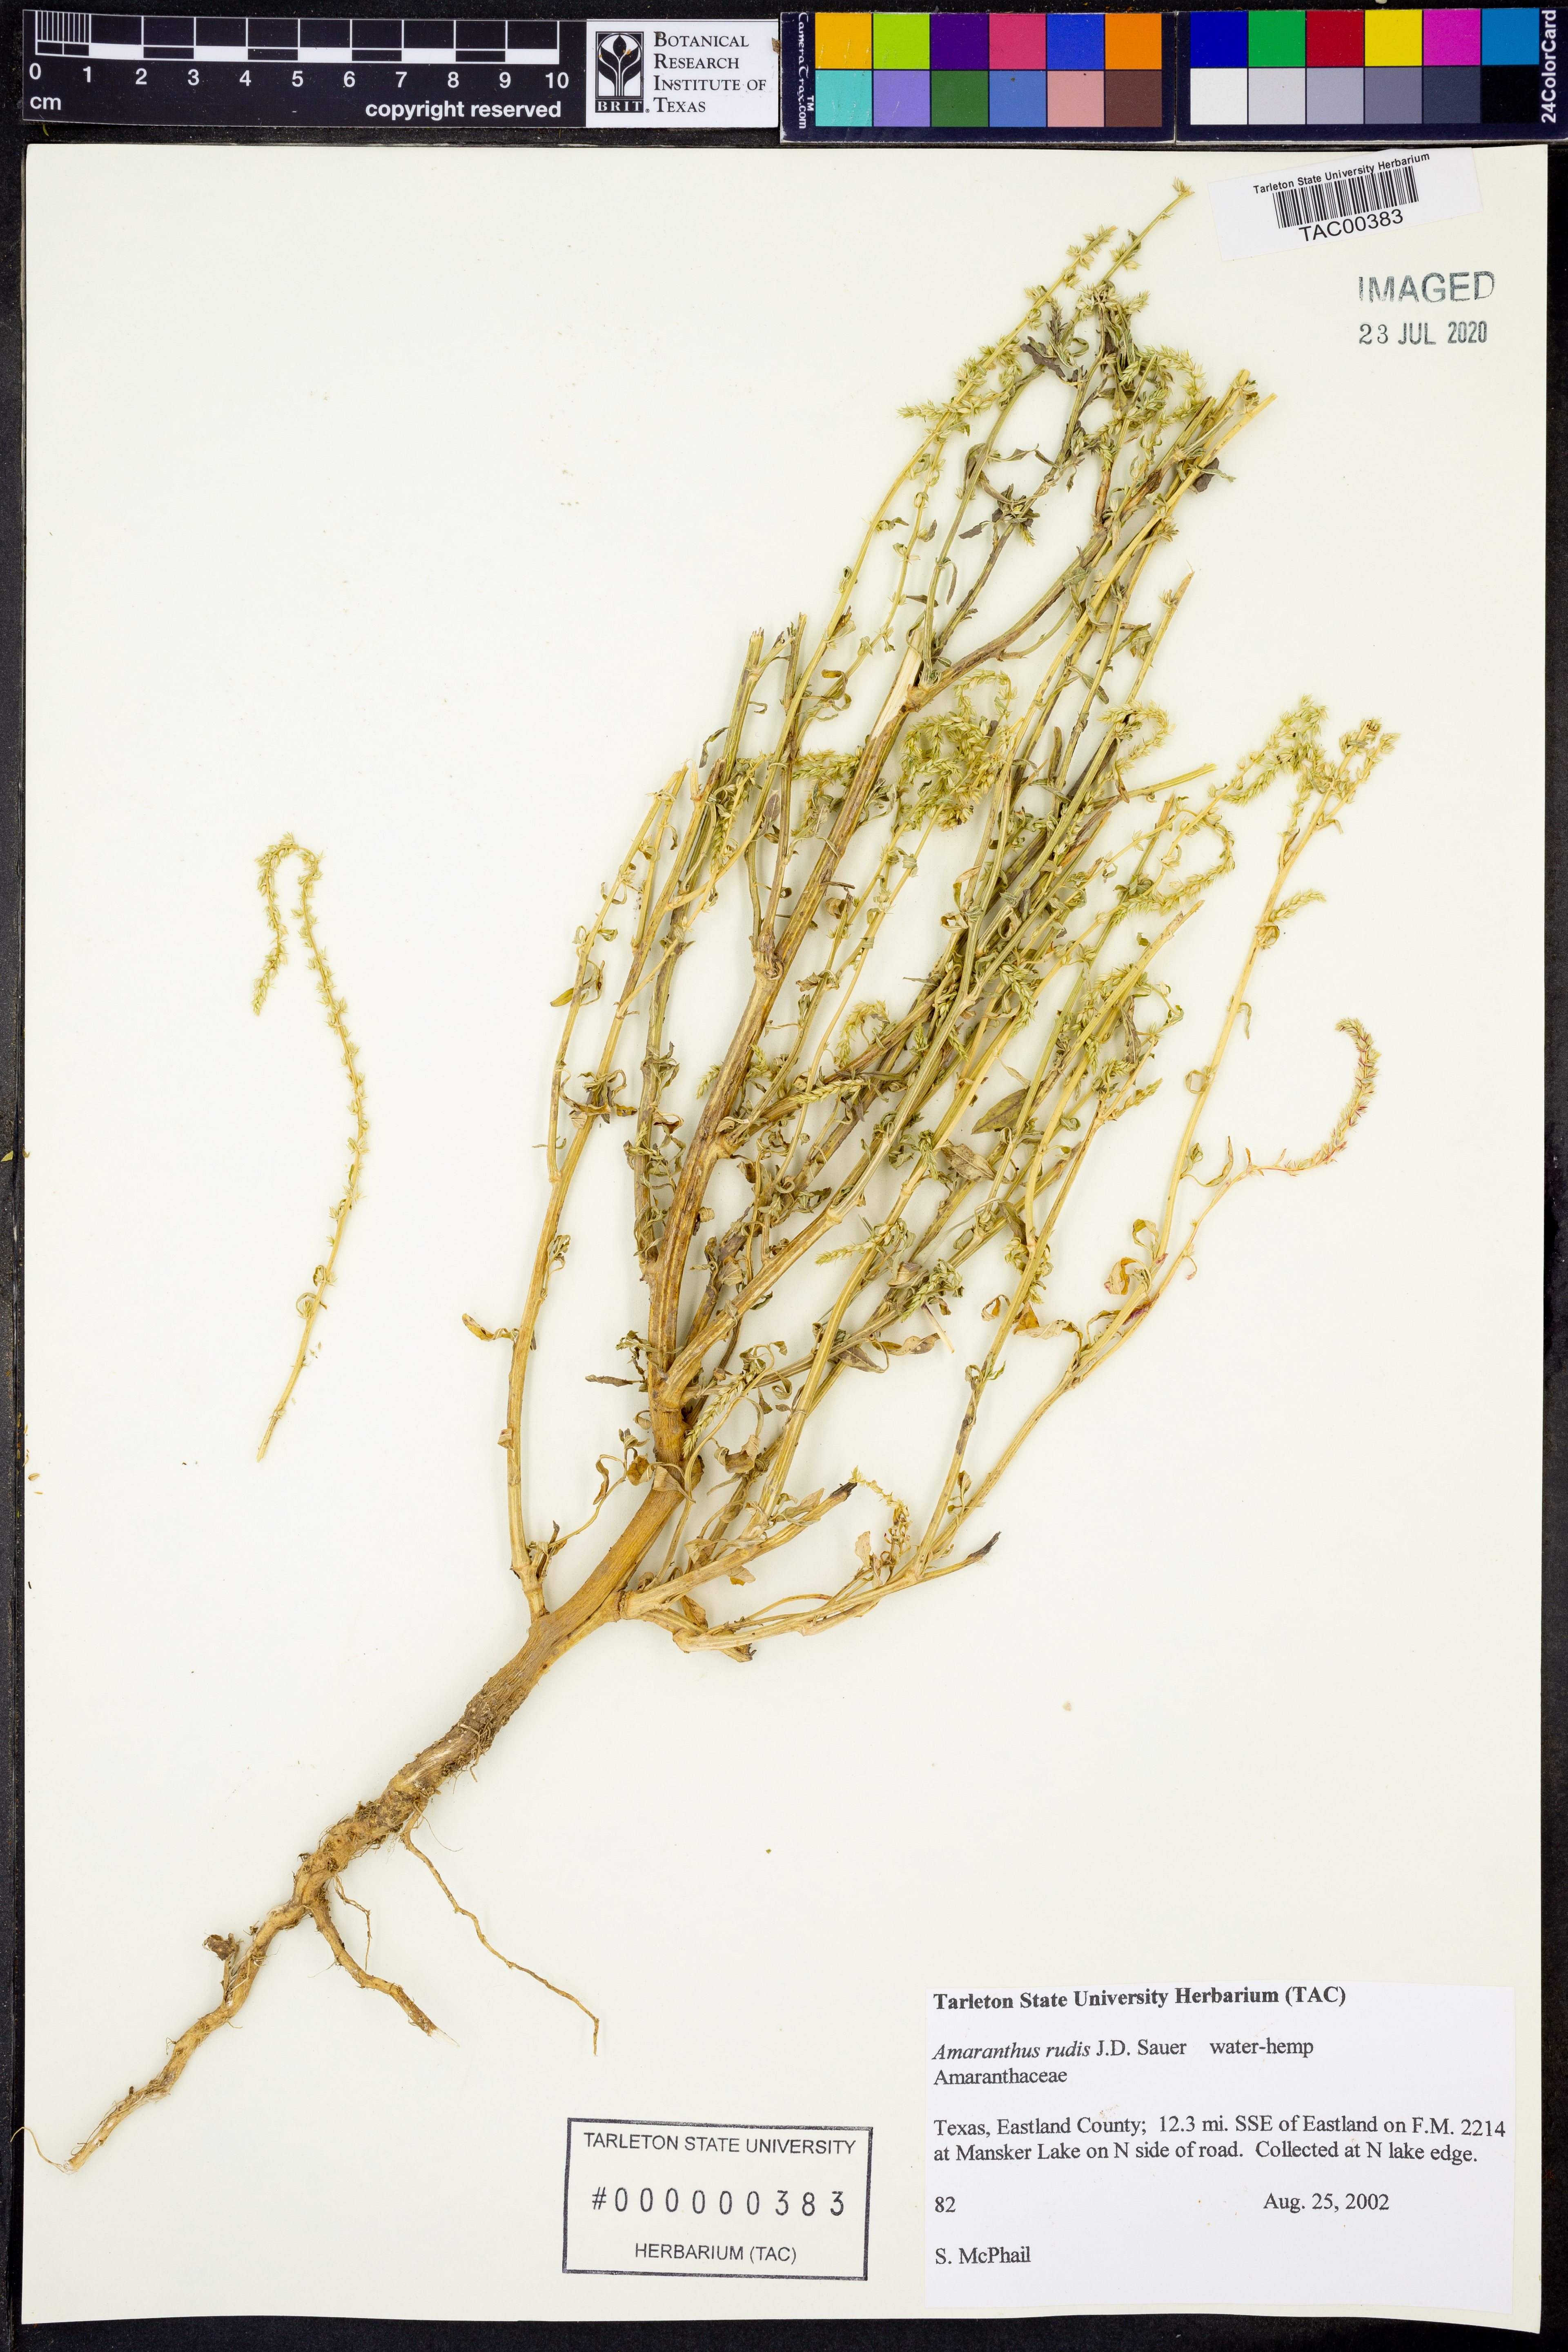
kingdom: Plantae
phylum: Tracheophyta
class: Magnoliopsida
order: Caryophyllales
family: Amaranthaceae
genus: Amaranthus
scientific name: Amaranthus tuberculatus
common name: Rough-fruit amaranth
